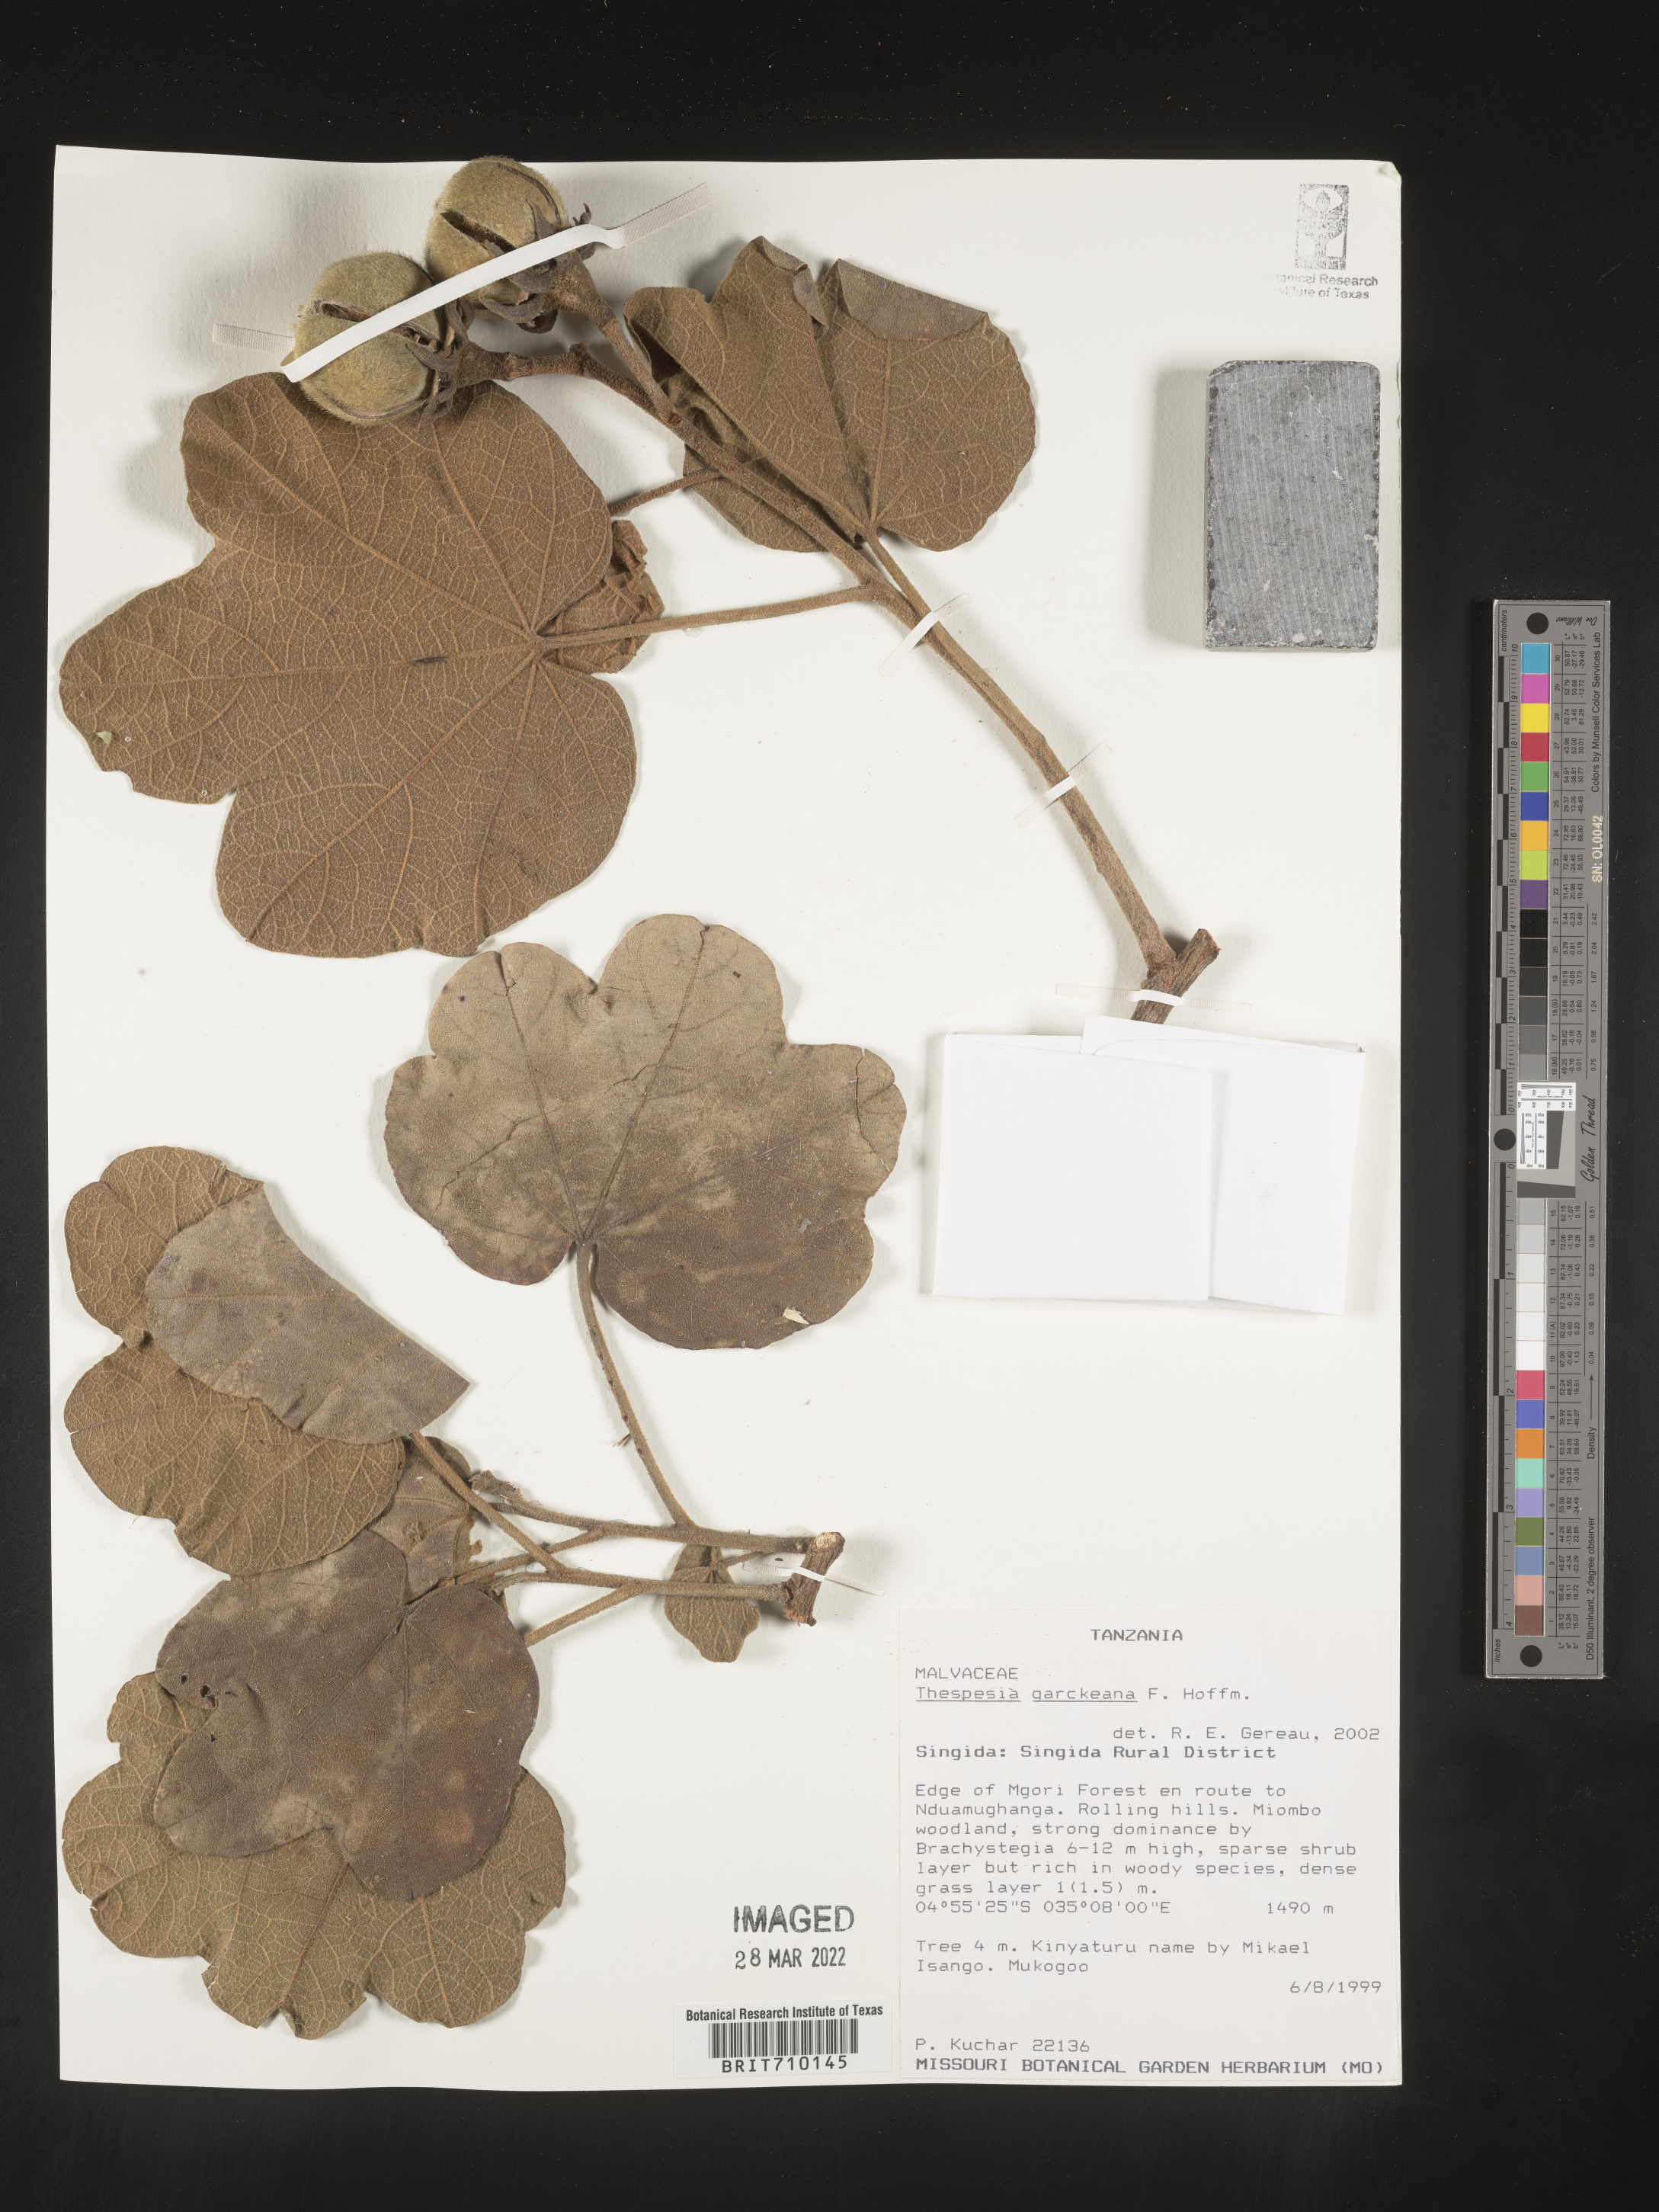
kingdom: Plantae
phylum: Tracheophyta
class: Magnoliopsida
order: Malvales
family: Malvaceae
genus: Thespesia
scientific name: Thespesia
